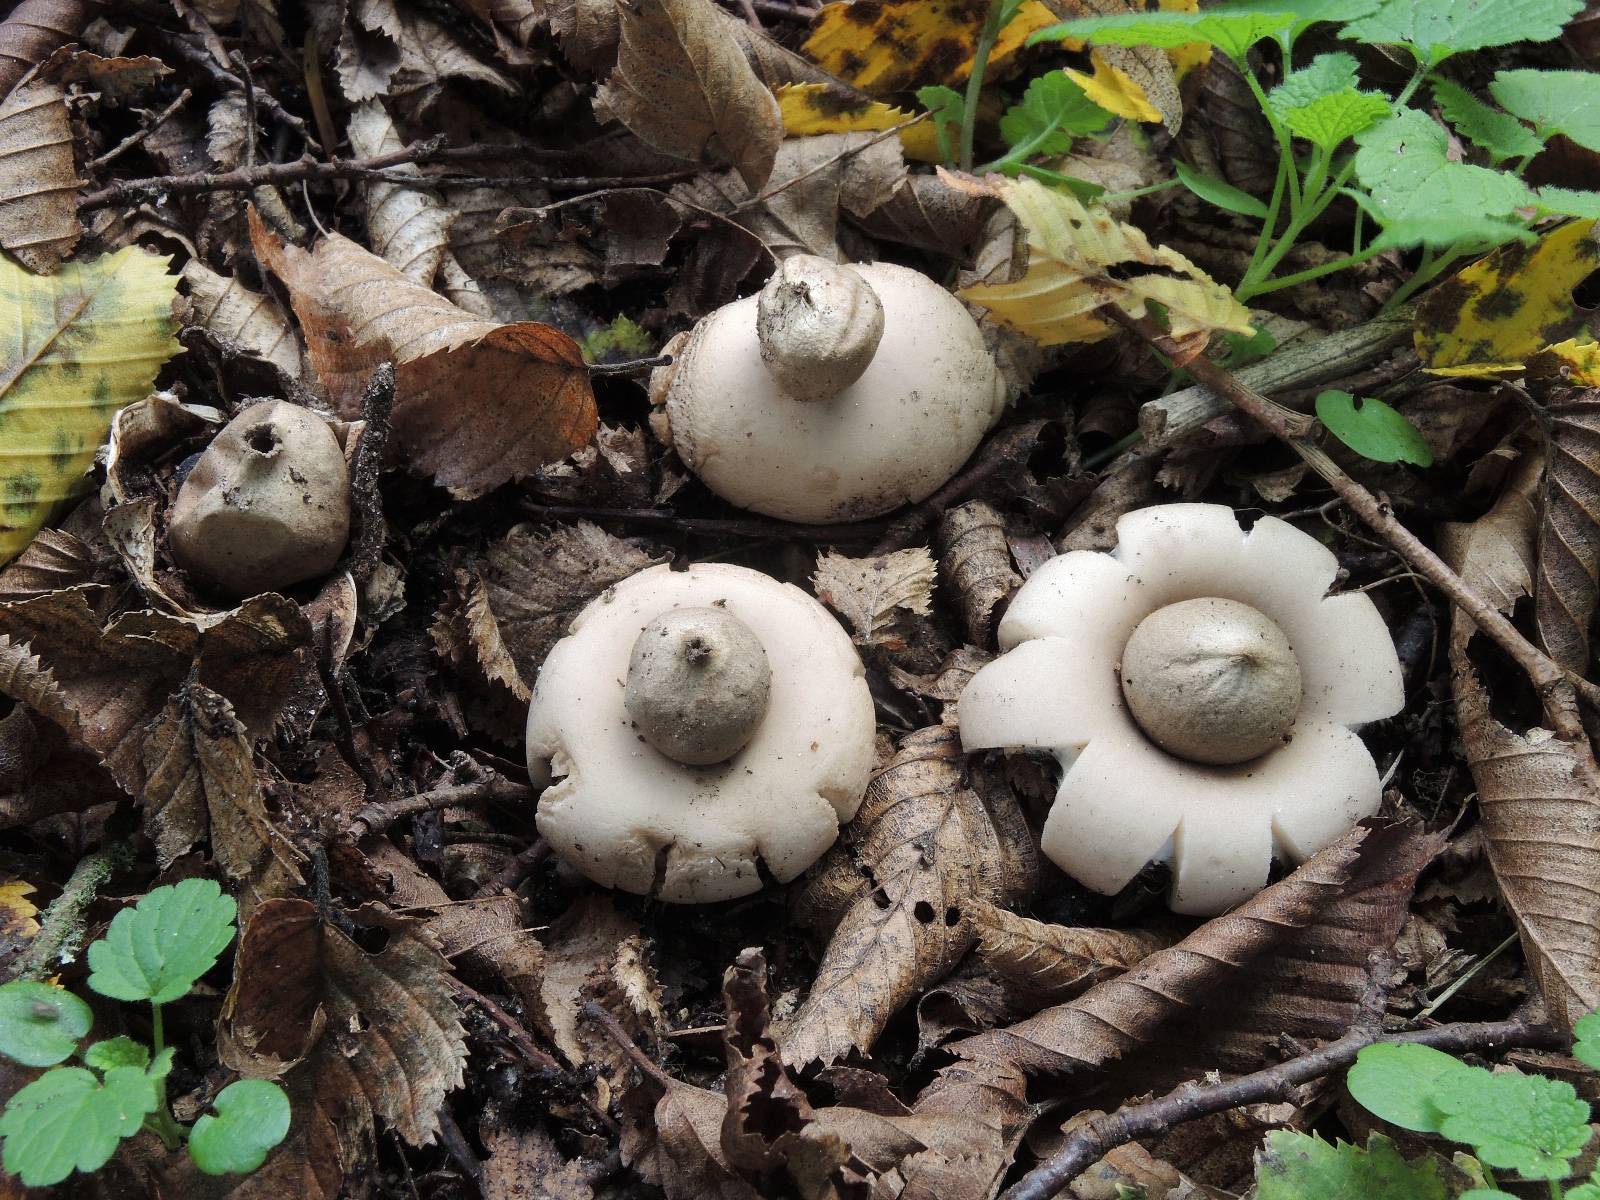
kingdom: Fungi
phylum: Basidiomycota
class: Agaricomycetes
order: Geastrales
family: Geastraceae
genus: Geastrum
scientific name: Geastrum fimbriatum
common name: frynset stjernebold
